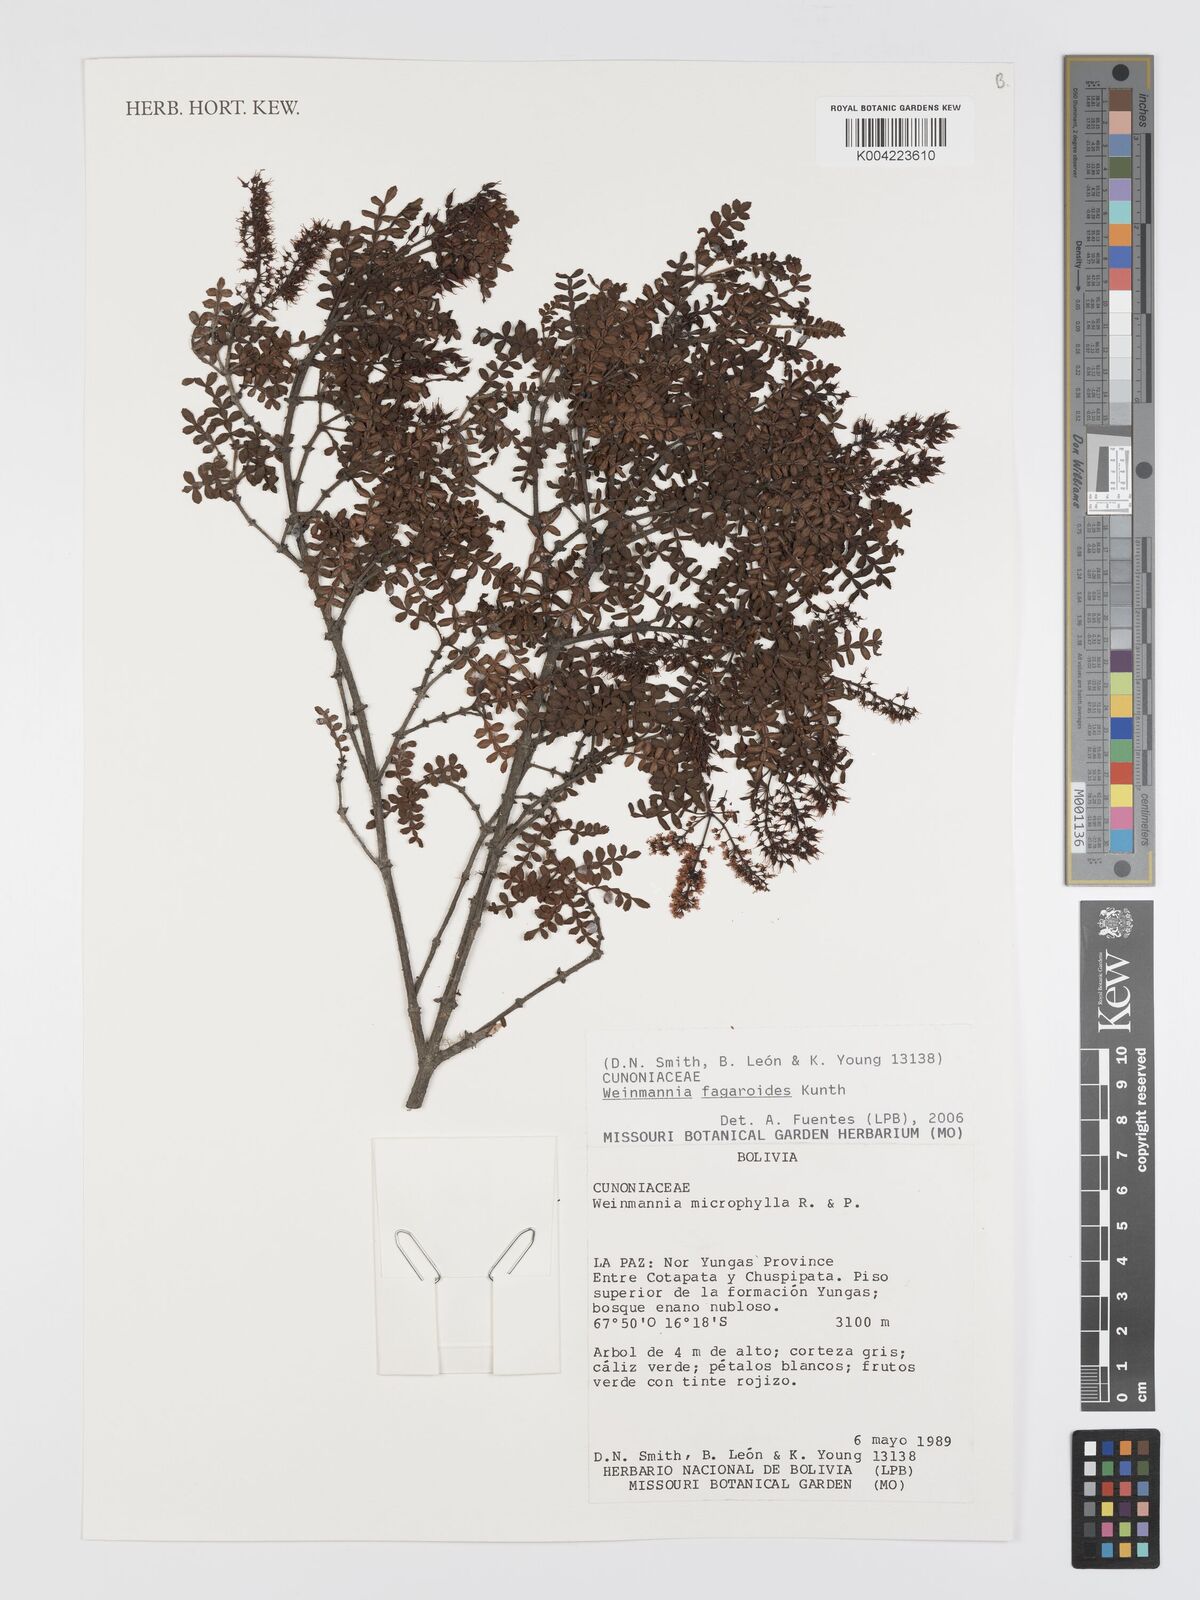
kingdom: Plantae
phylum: Tracheophyta
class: Magnoliopsida
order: Oxalidales
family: Cunoniaceae
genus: Weinmannia
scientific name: Weinmannia fagaroides
